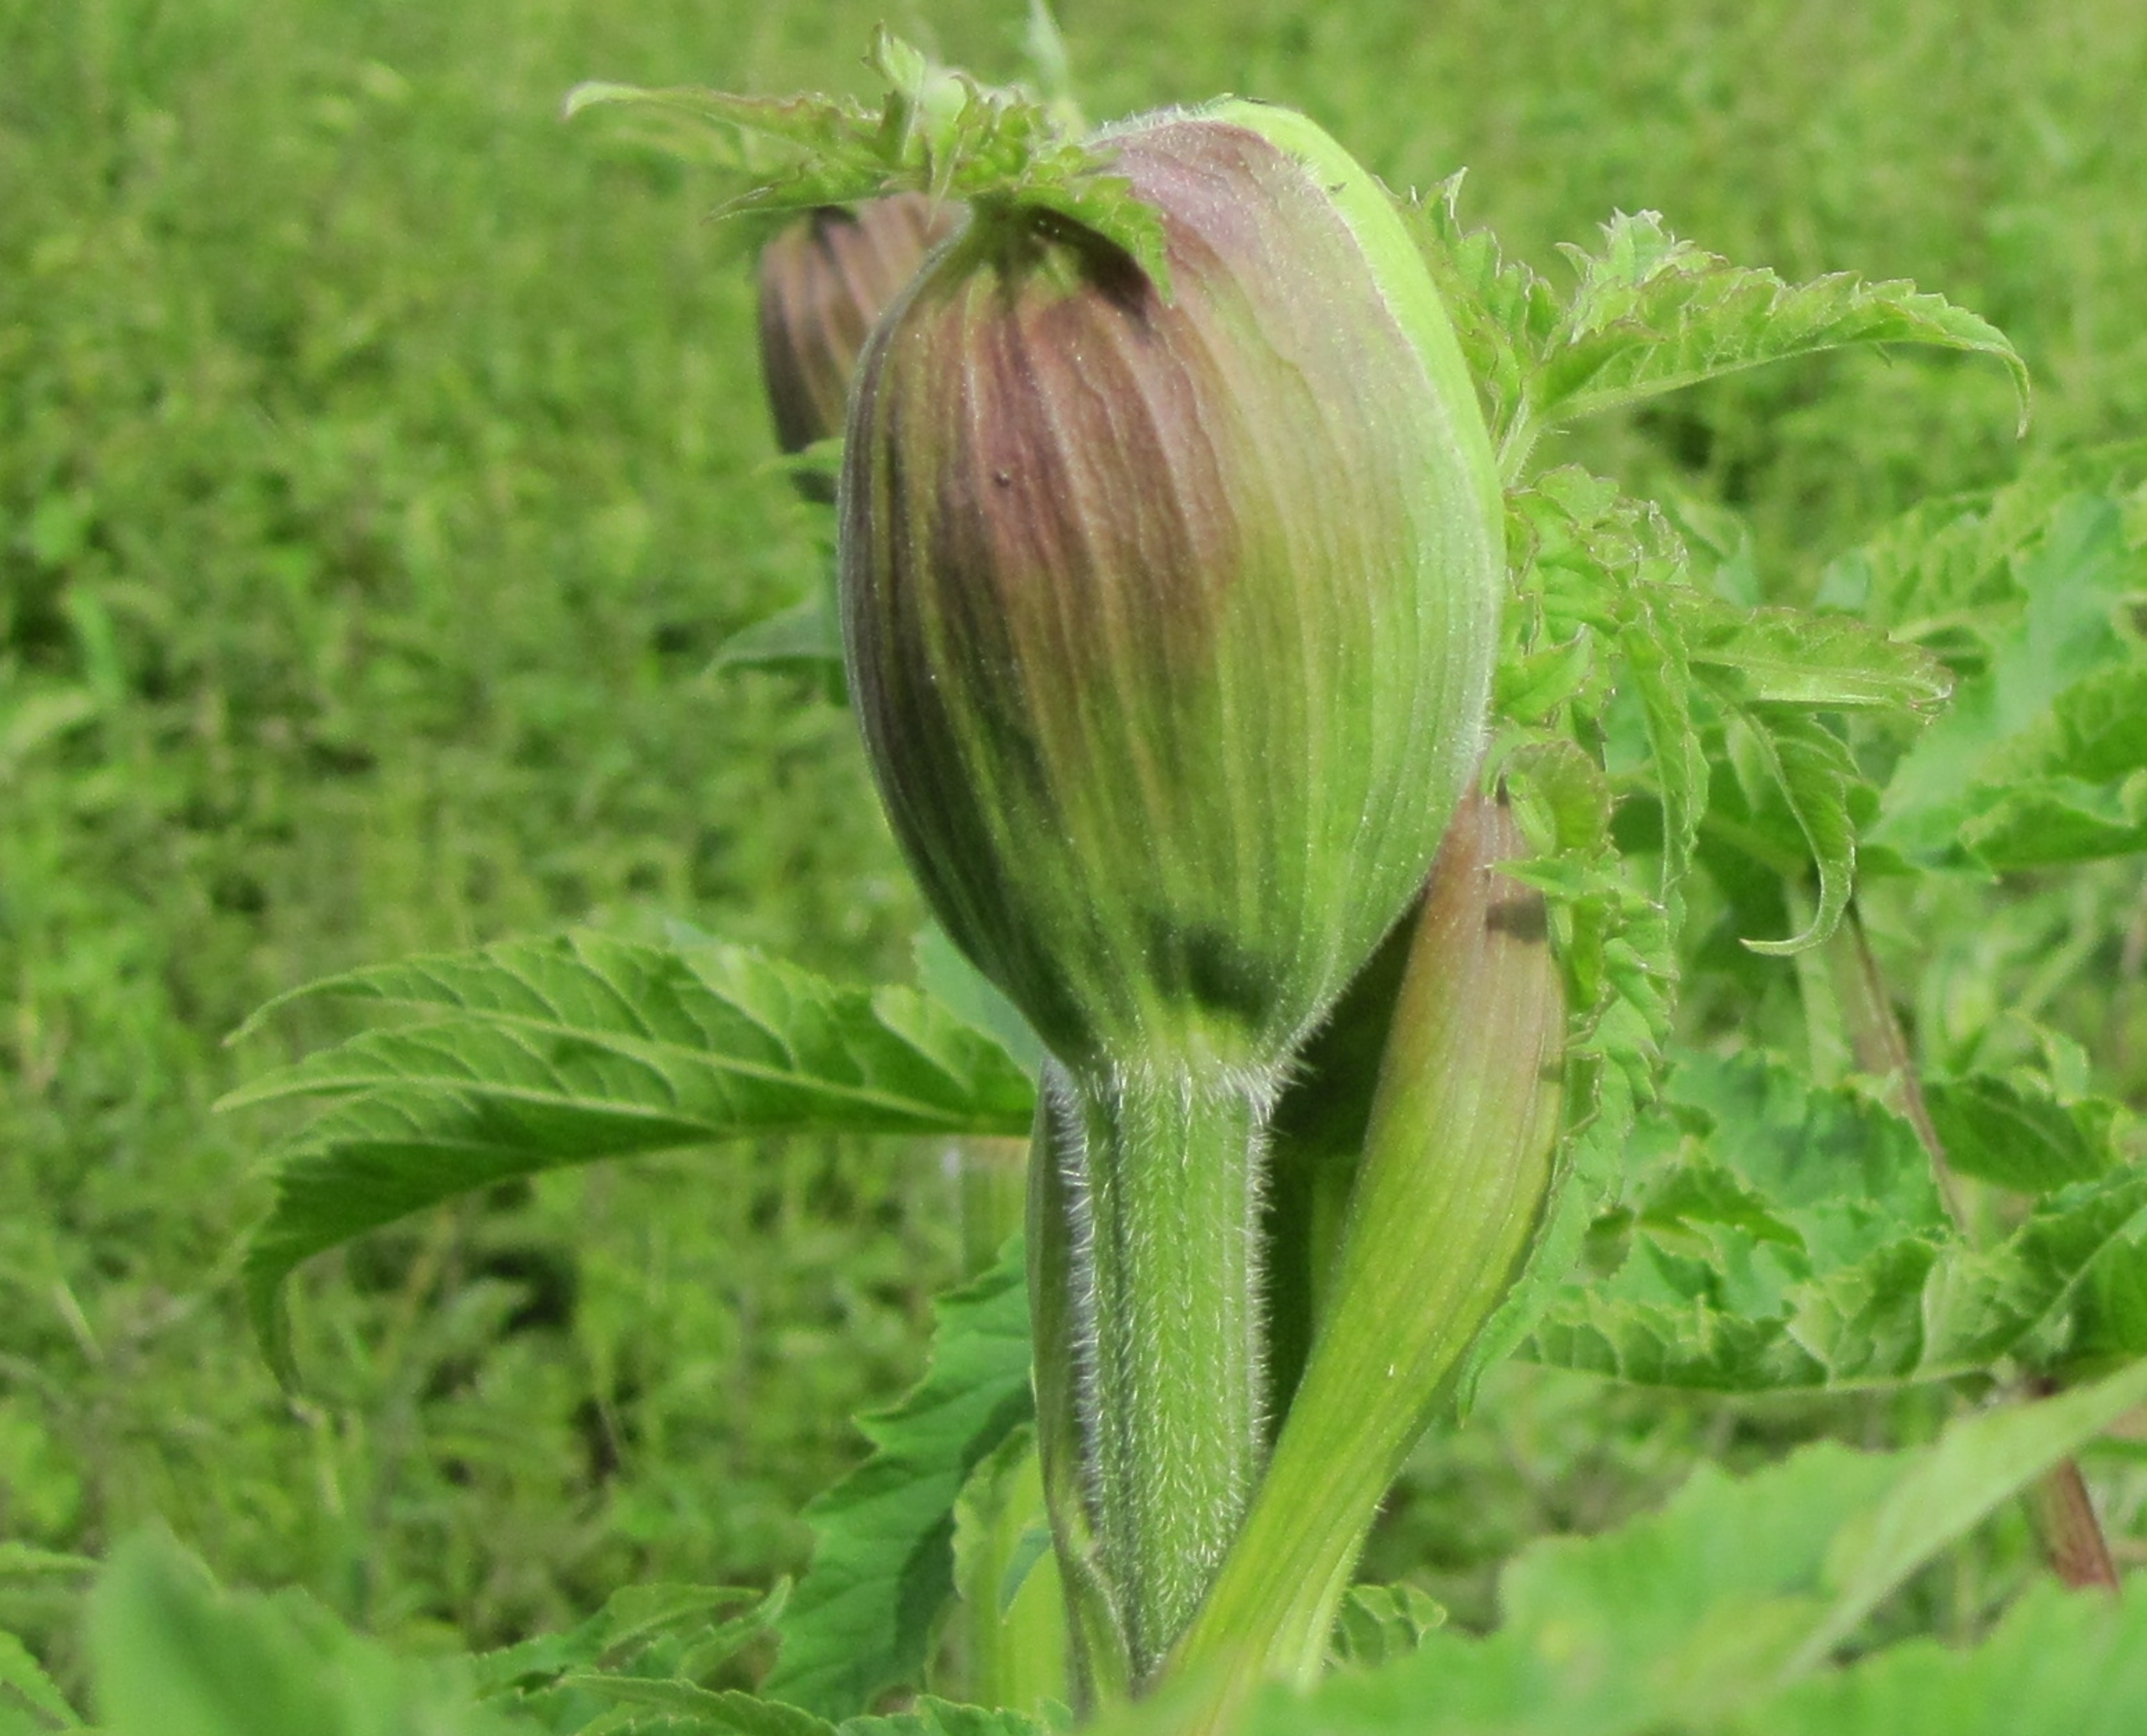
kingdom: Plantae
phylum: Tracheophyta
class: Magnoliopsida
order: Apiales
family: Apiaceae
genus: Heracleum
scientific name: Heracleum persicum
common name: Hårfrugtet bjørneklo
